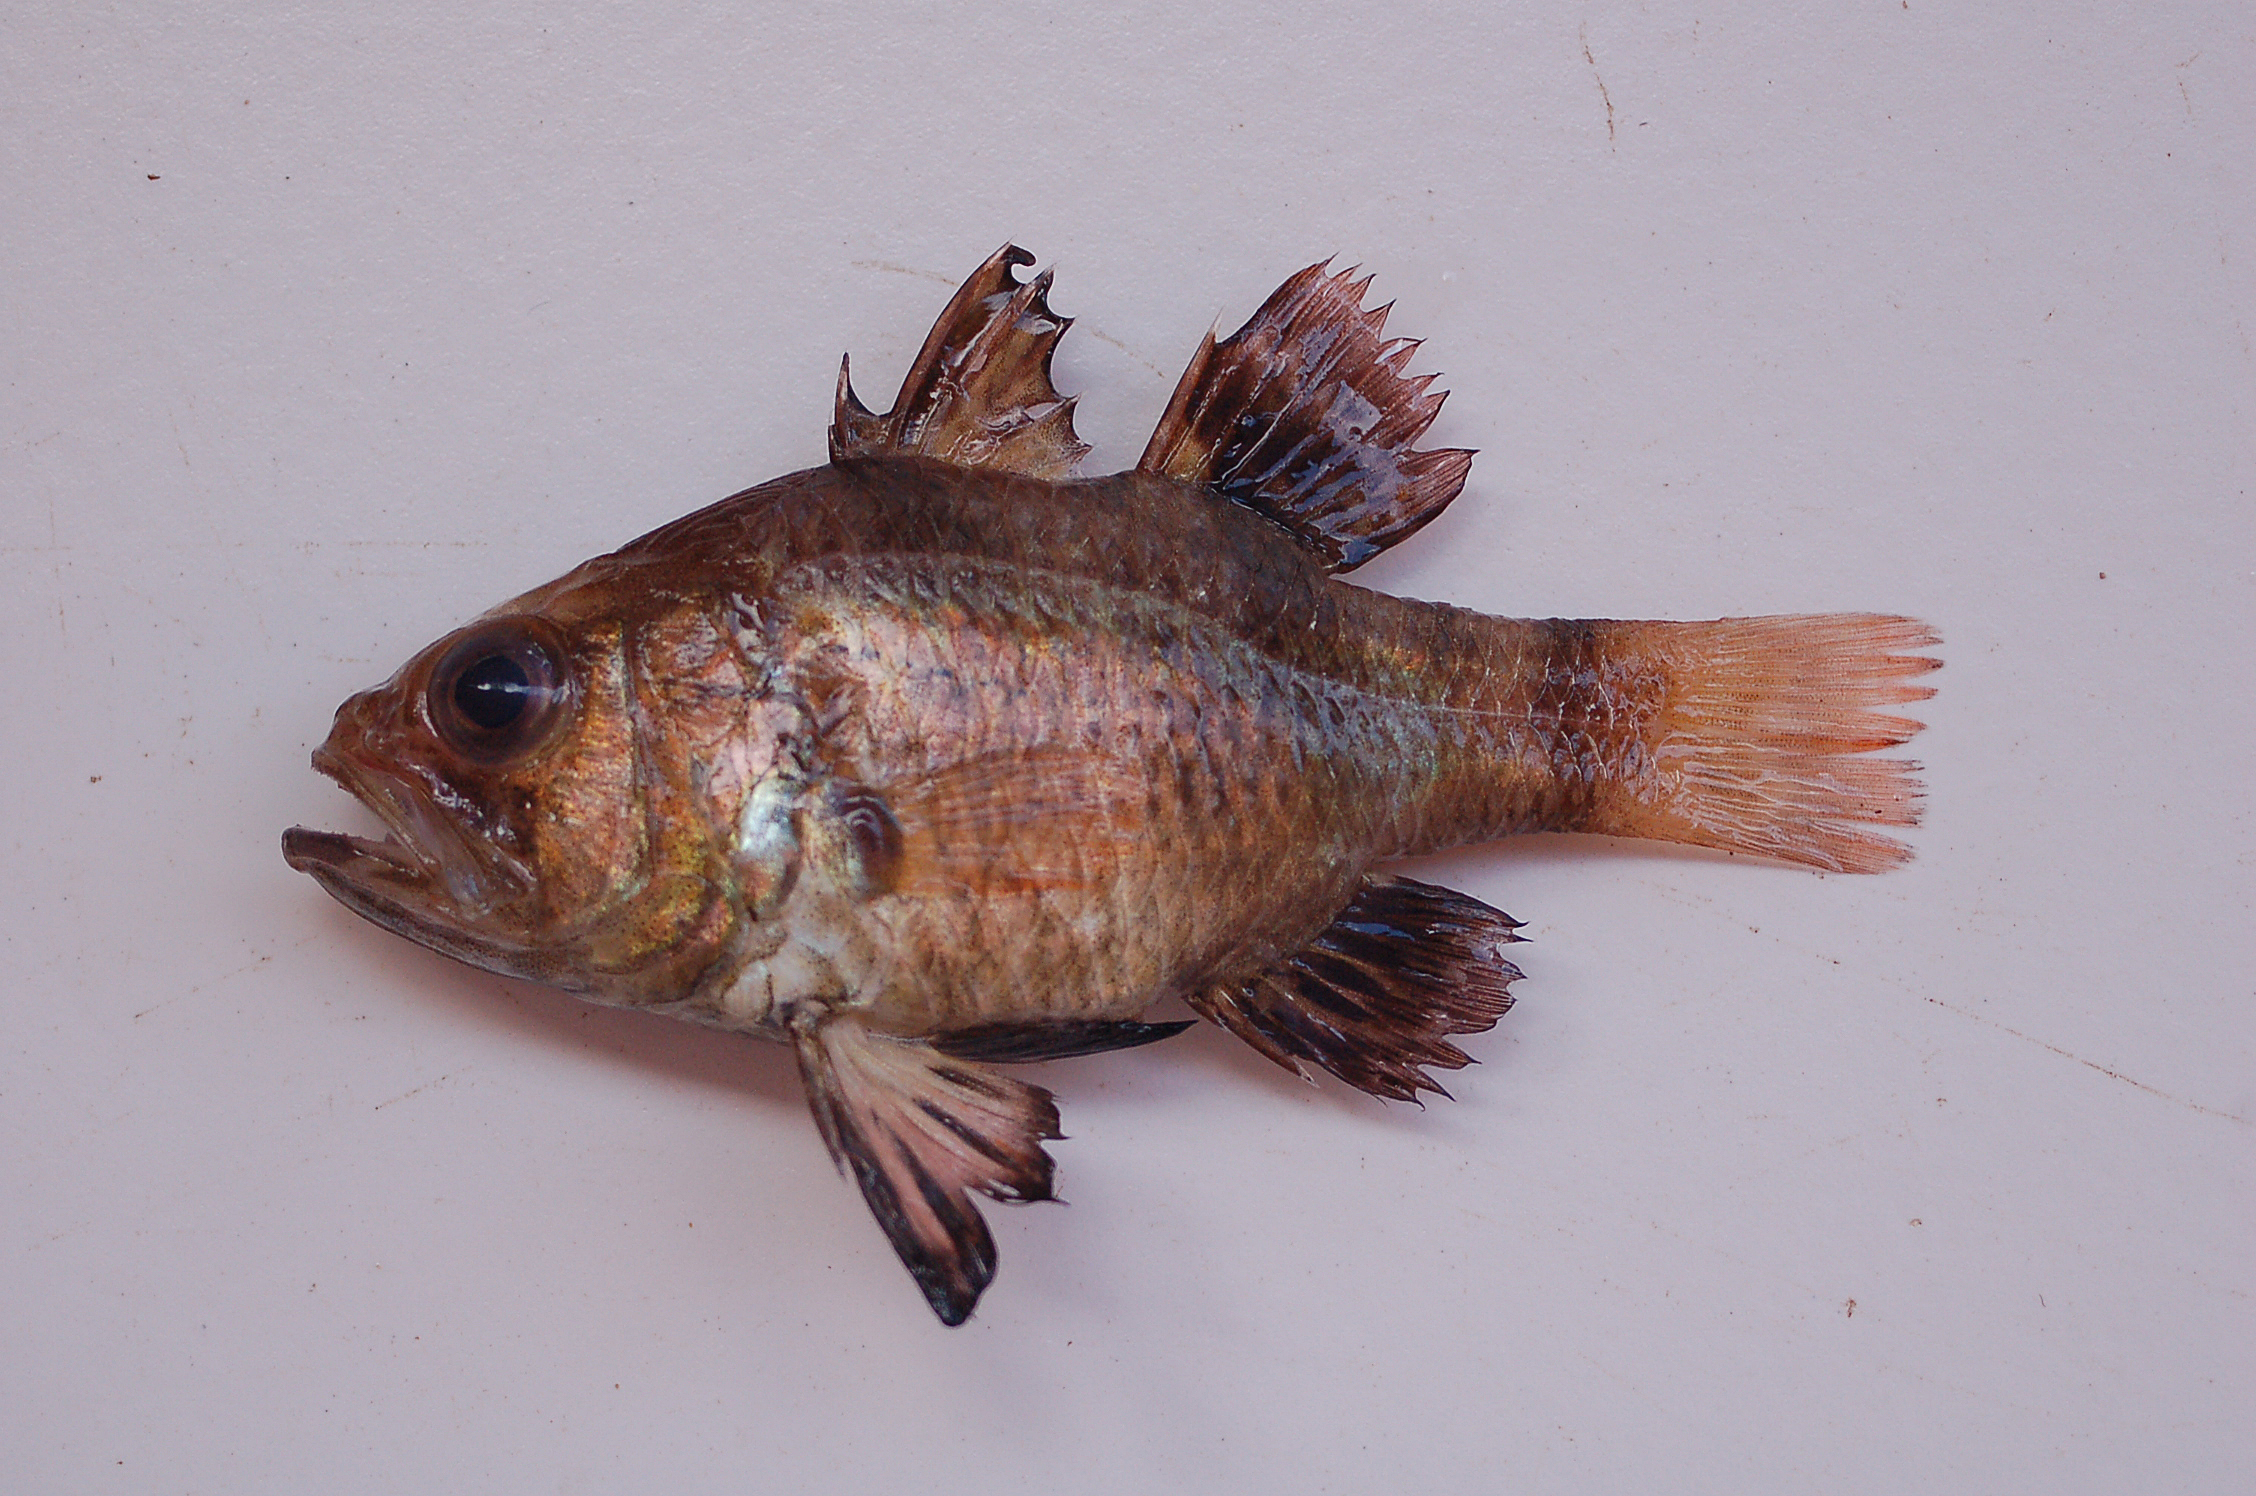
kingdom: Animalia
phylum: Chordata
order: Perciformes
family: Apogonidae
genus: Apogonichthyoides
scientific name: Apogonichthyoides timorensis
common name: Timor cardinal
